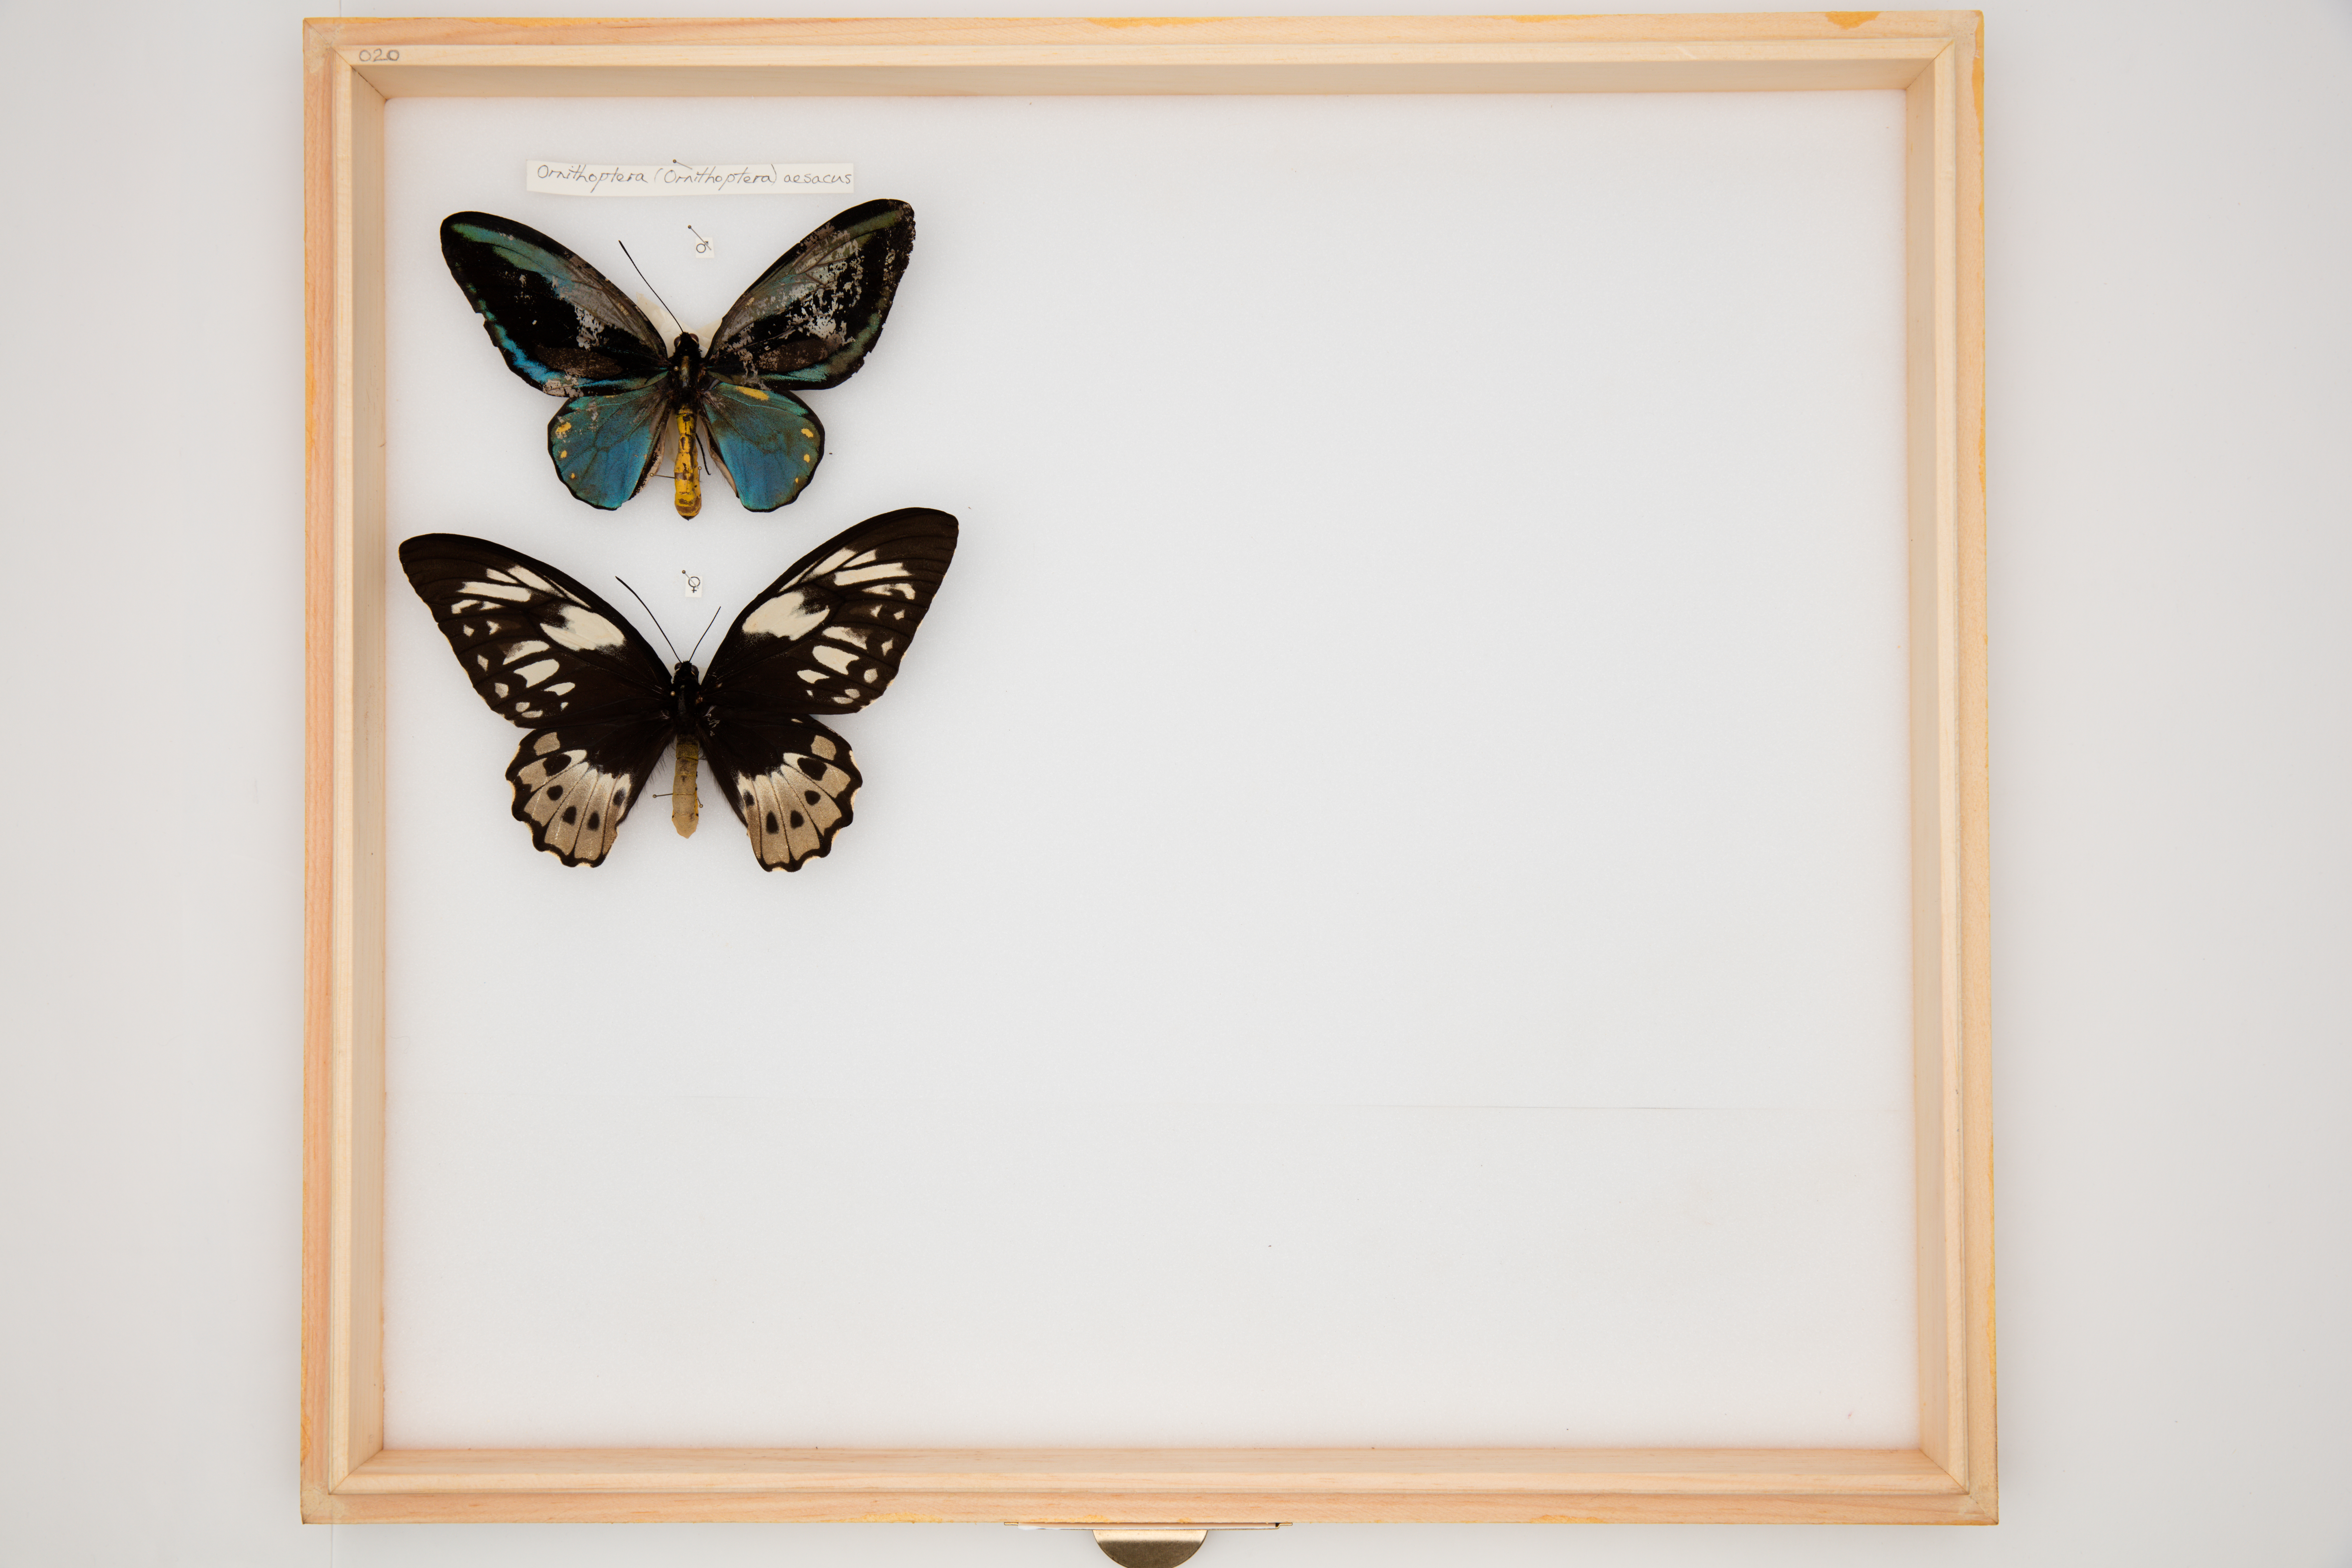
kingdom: Animalia
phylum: Arthropoda
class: Insecta
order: Lepidoptera
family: Papilionidae
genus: Ornithoptera
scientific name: Ornithoptera aesacus
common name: Obi island birdwing
